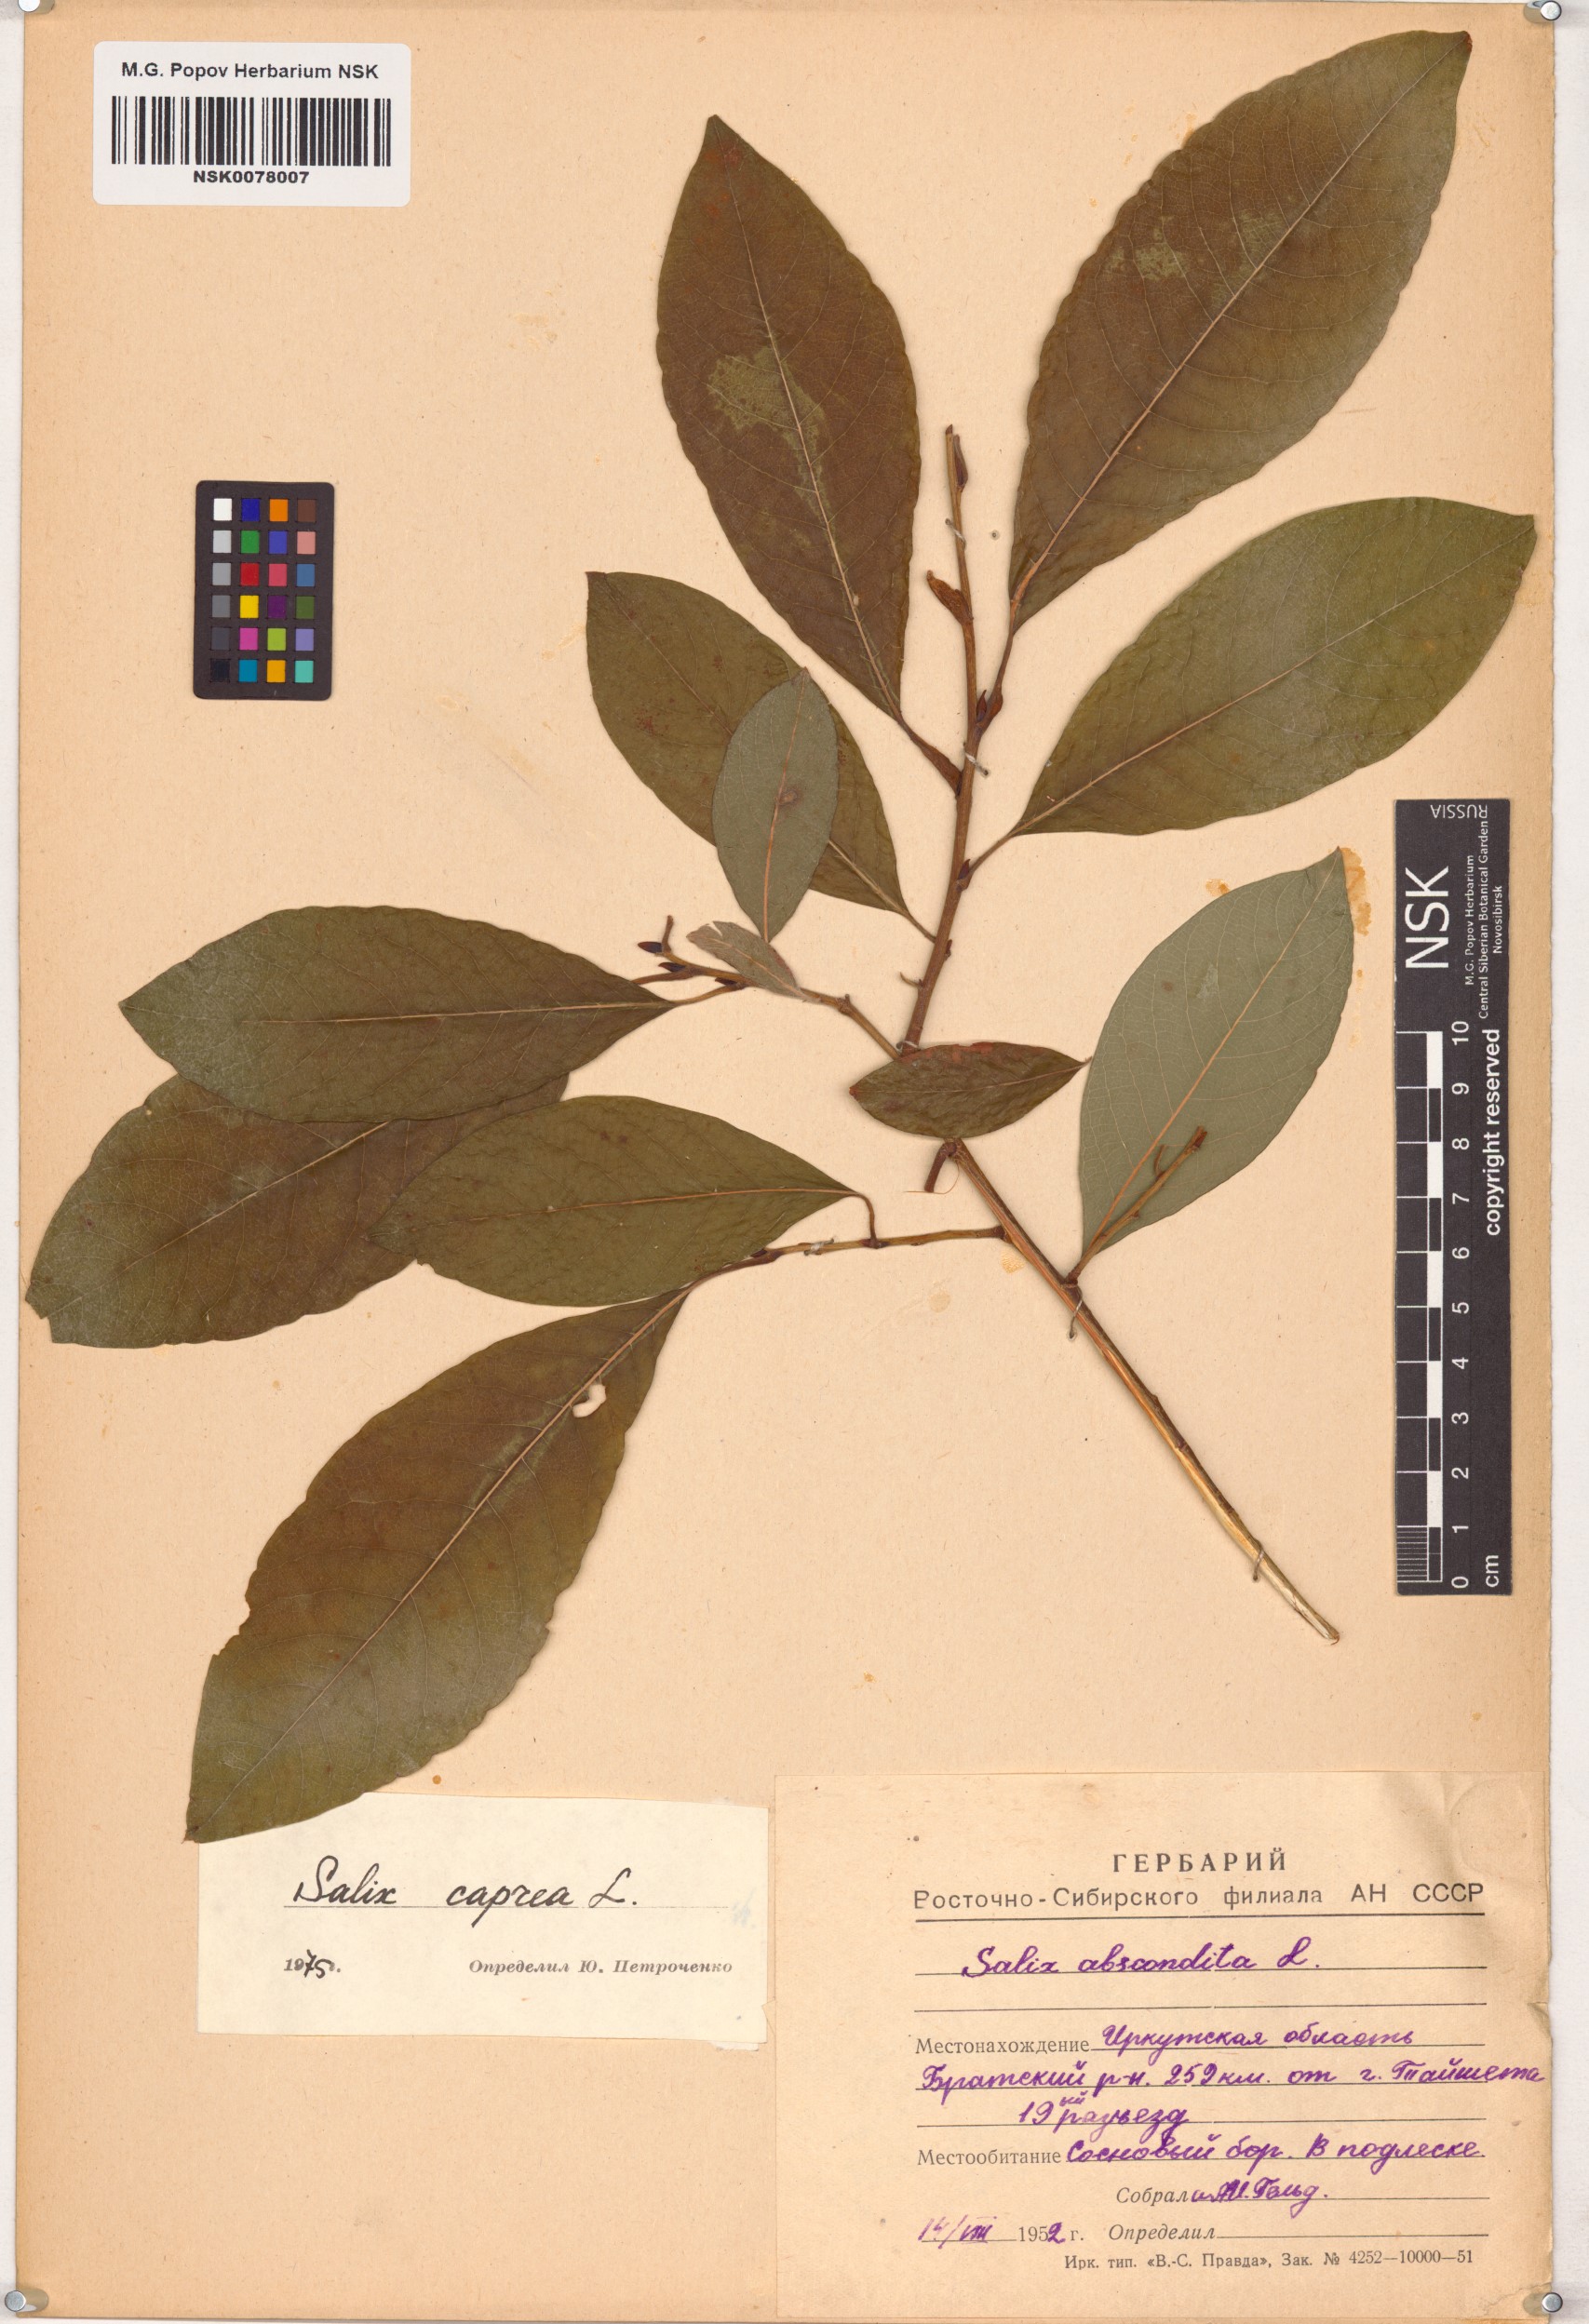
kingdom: Plantae
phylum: Tracheophyta
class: Magnoliopsida
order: Malpighiales
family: Salicaceae
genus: Salix
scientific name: Salix caprea
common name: Goat willow
